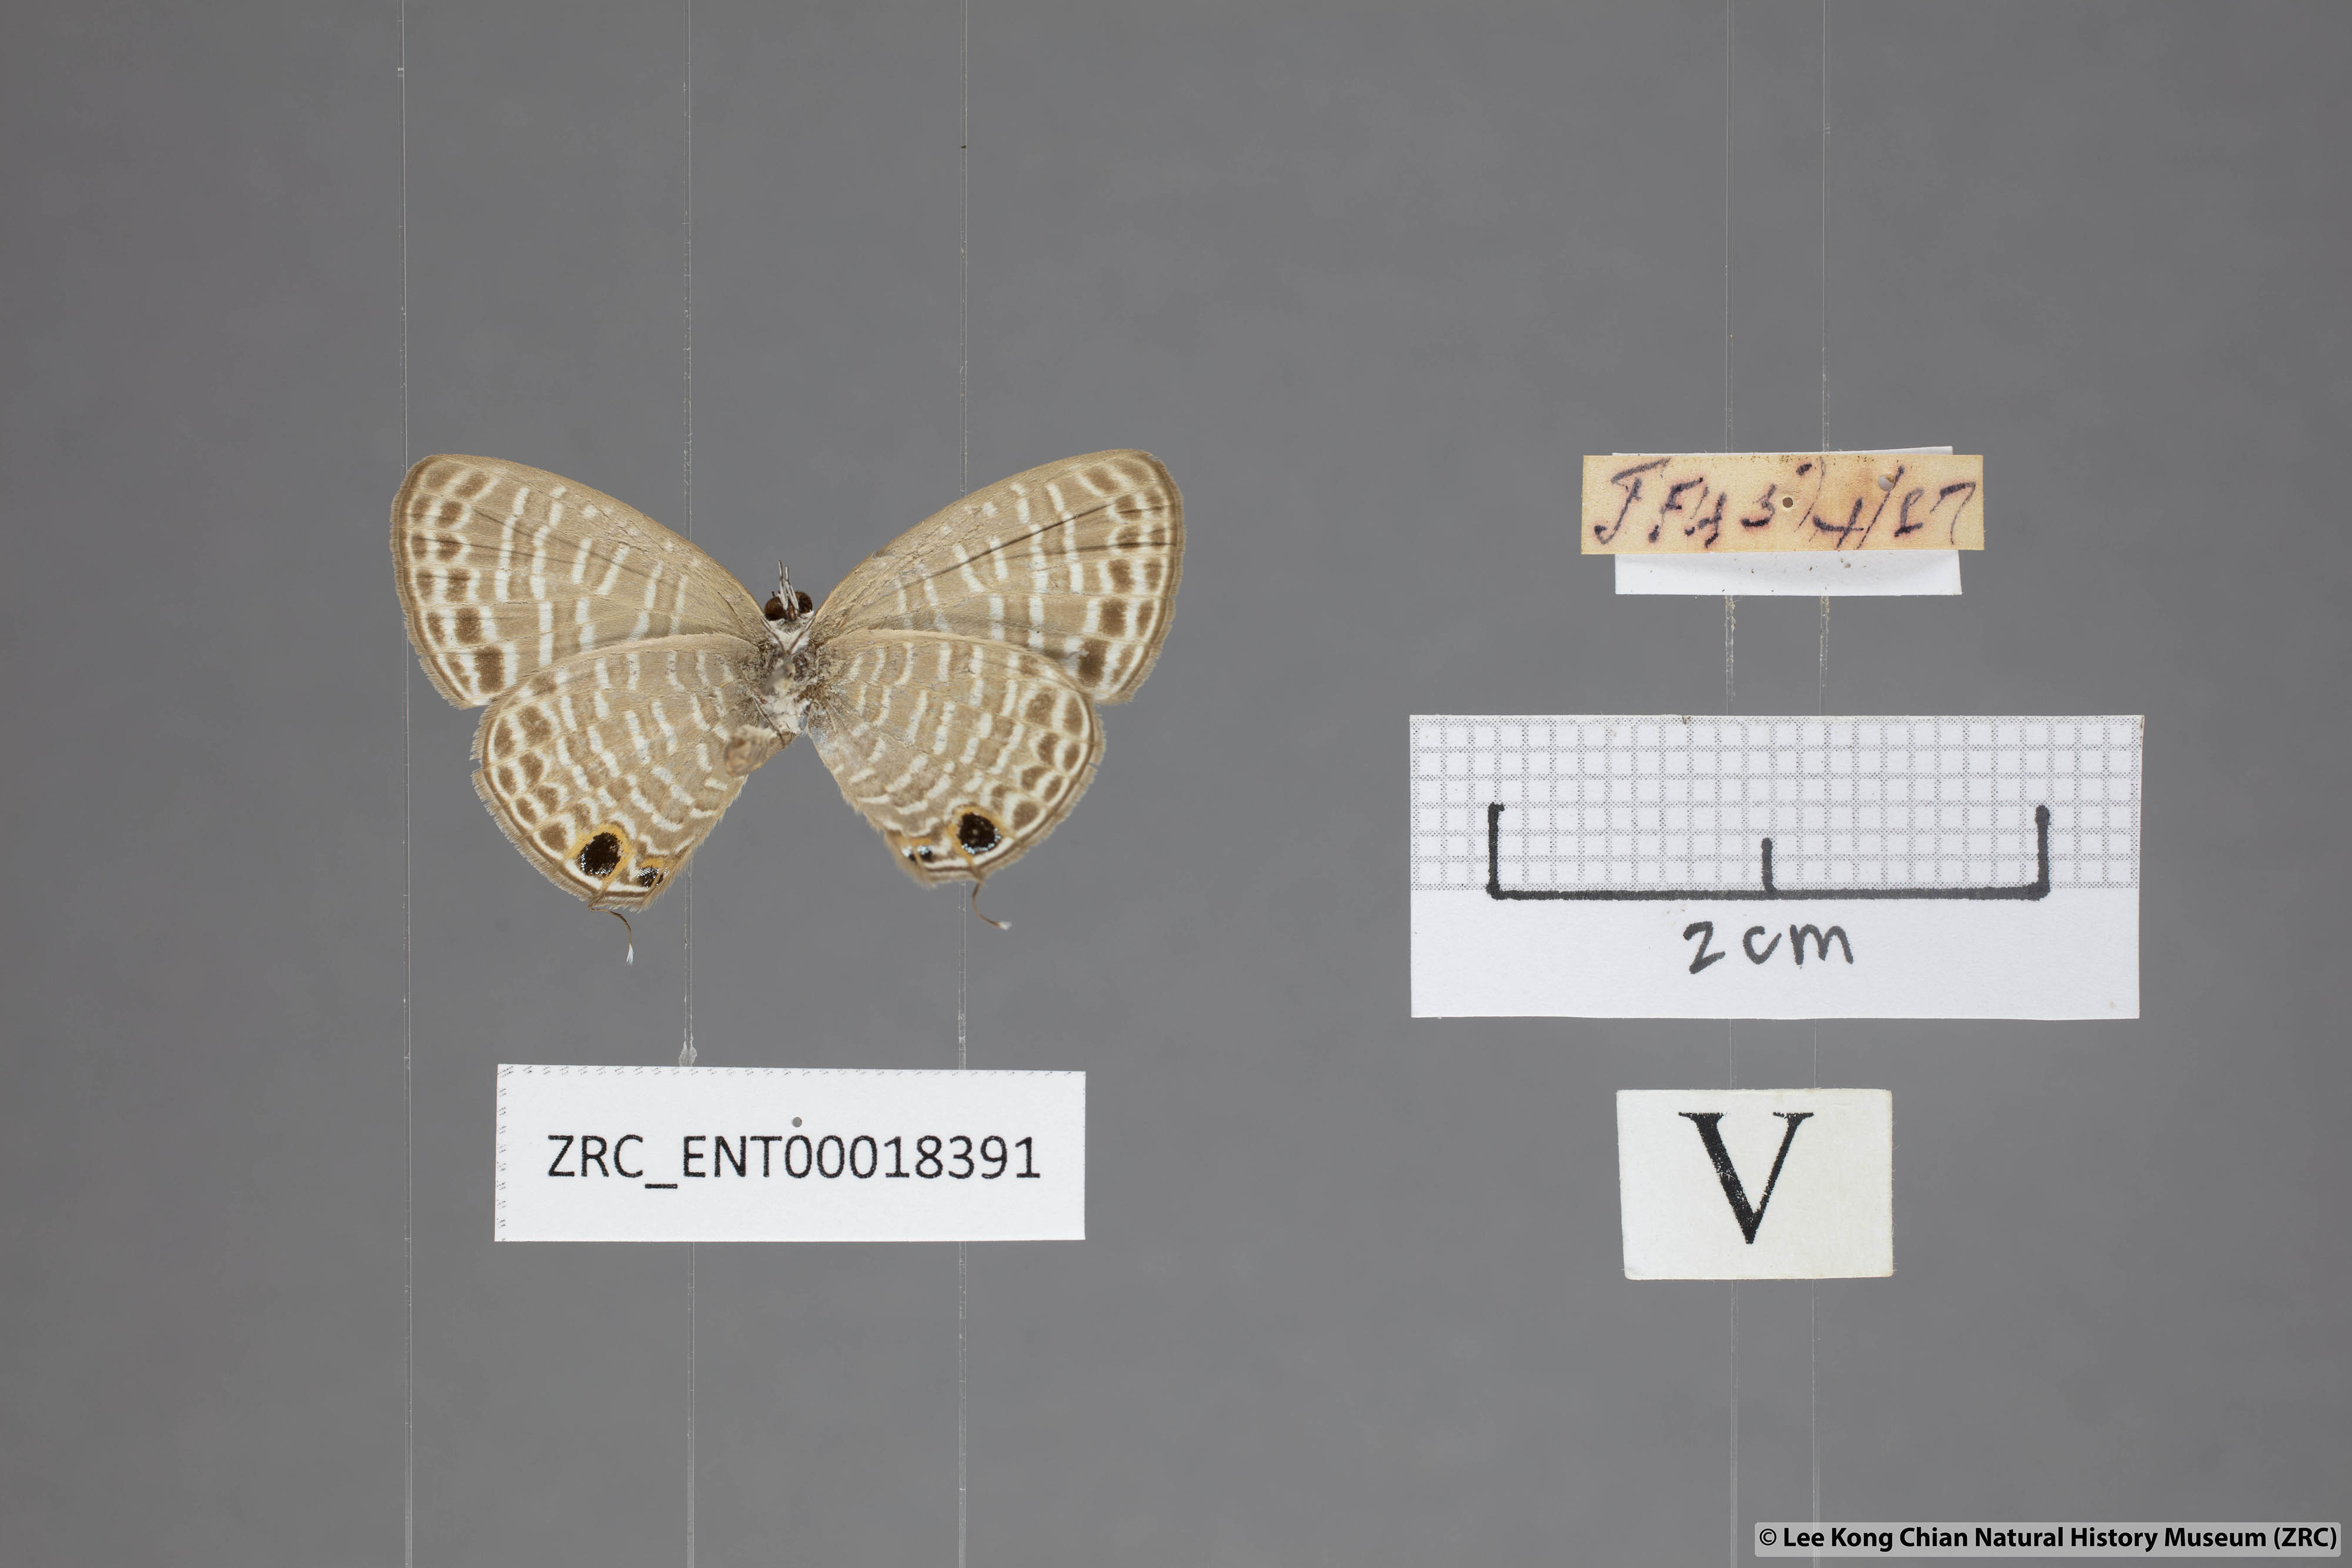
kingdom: Animalia
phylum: Arthropoda
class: Insecta
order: Lepidoptera
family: Lycaenidae
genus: Nacaduba
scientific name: Nacaduba kurava
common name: Transparent 6-line blue
